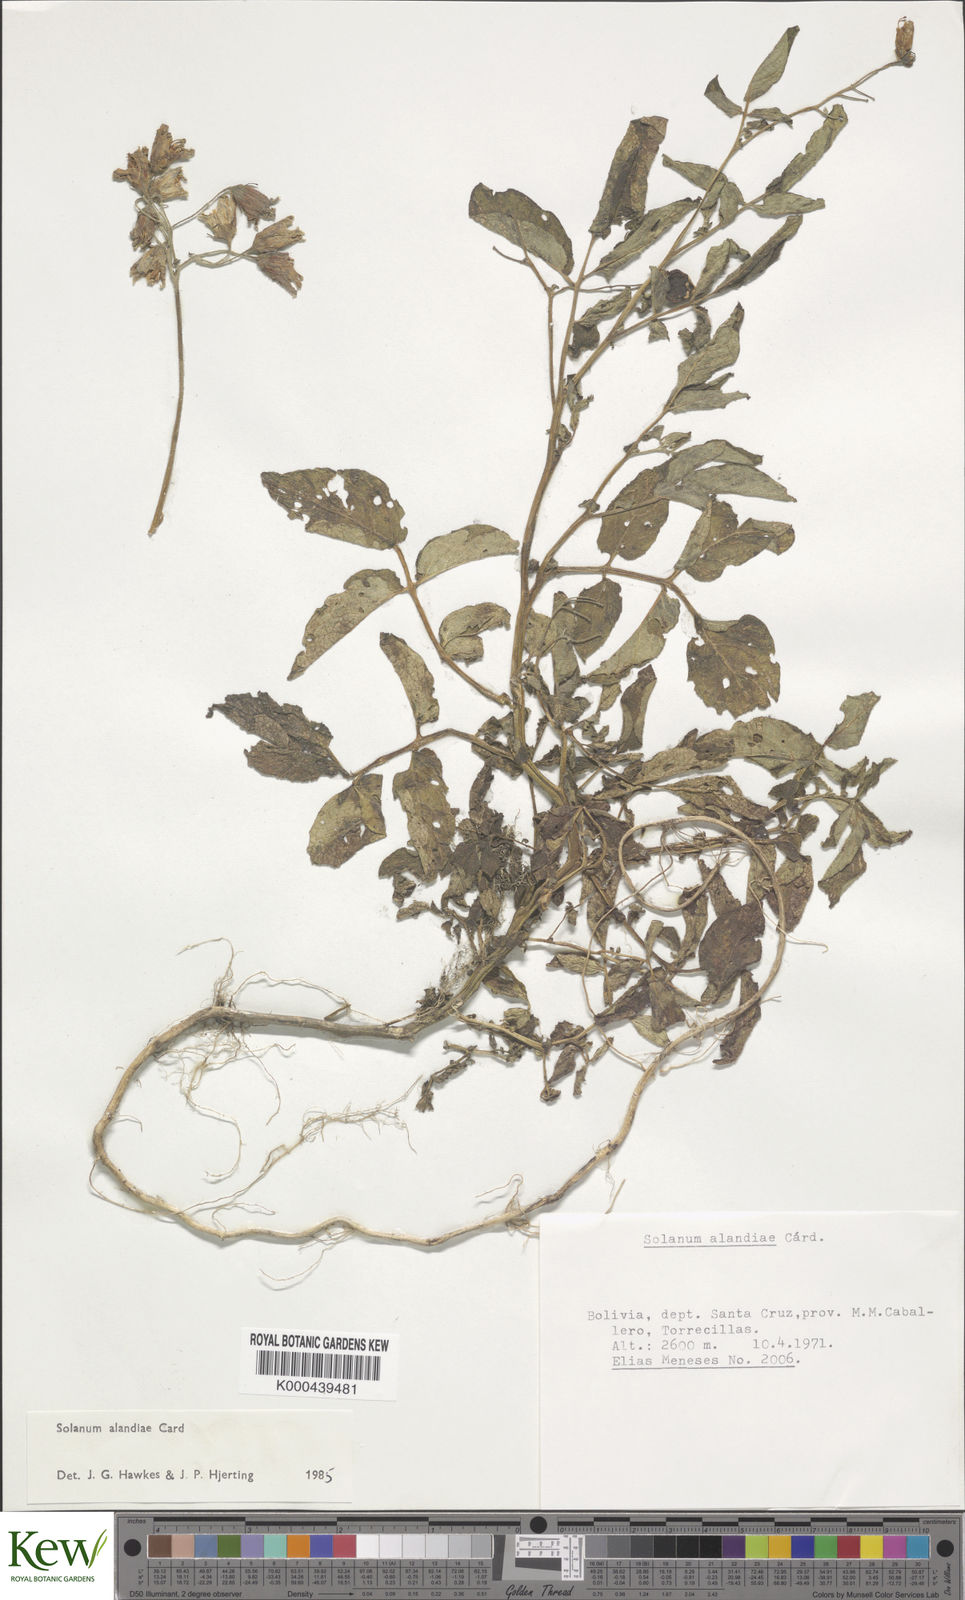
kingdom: Plantae
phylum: Tracheophyta
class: Magnoliopsida
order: Solanales
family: Solanaceae
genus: Solanum
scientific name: Solanum brevicaule
